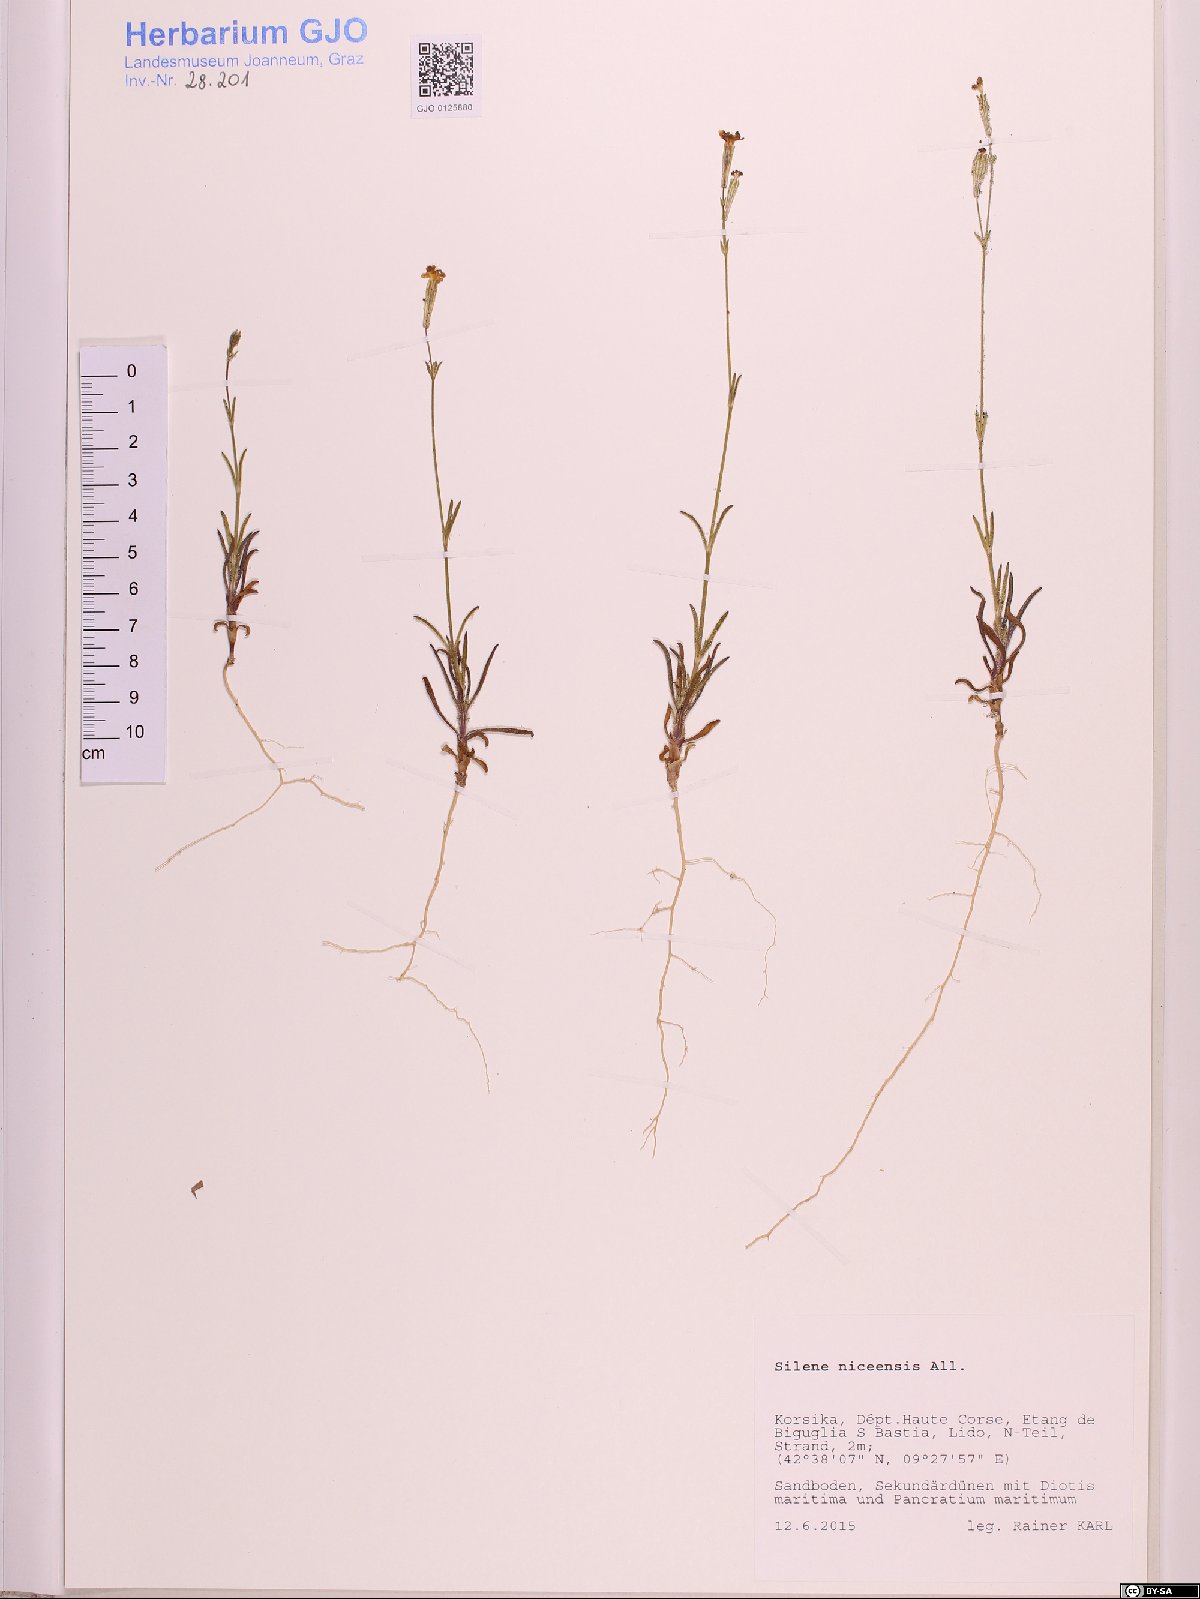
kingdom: Plantae
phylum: Tracheophyta
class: Magnoliopsida
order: Caryophyllales
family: Caryophyllaceae
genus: Silene
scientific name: Silene nicaeensis
